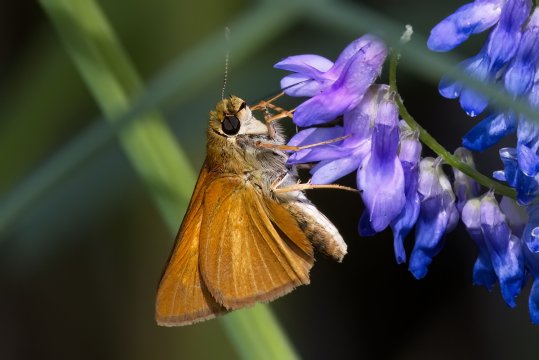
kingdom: Animalia
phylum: Arthropoda
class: Insecta
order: Lepidoptera
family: Hesperiidae
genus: Euphyes
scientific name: Euphyes dion
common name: Dion Skipper
